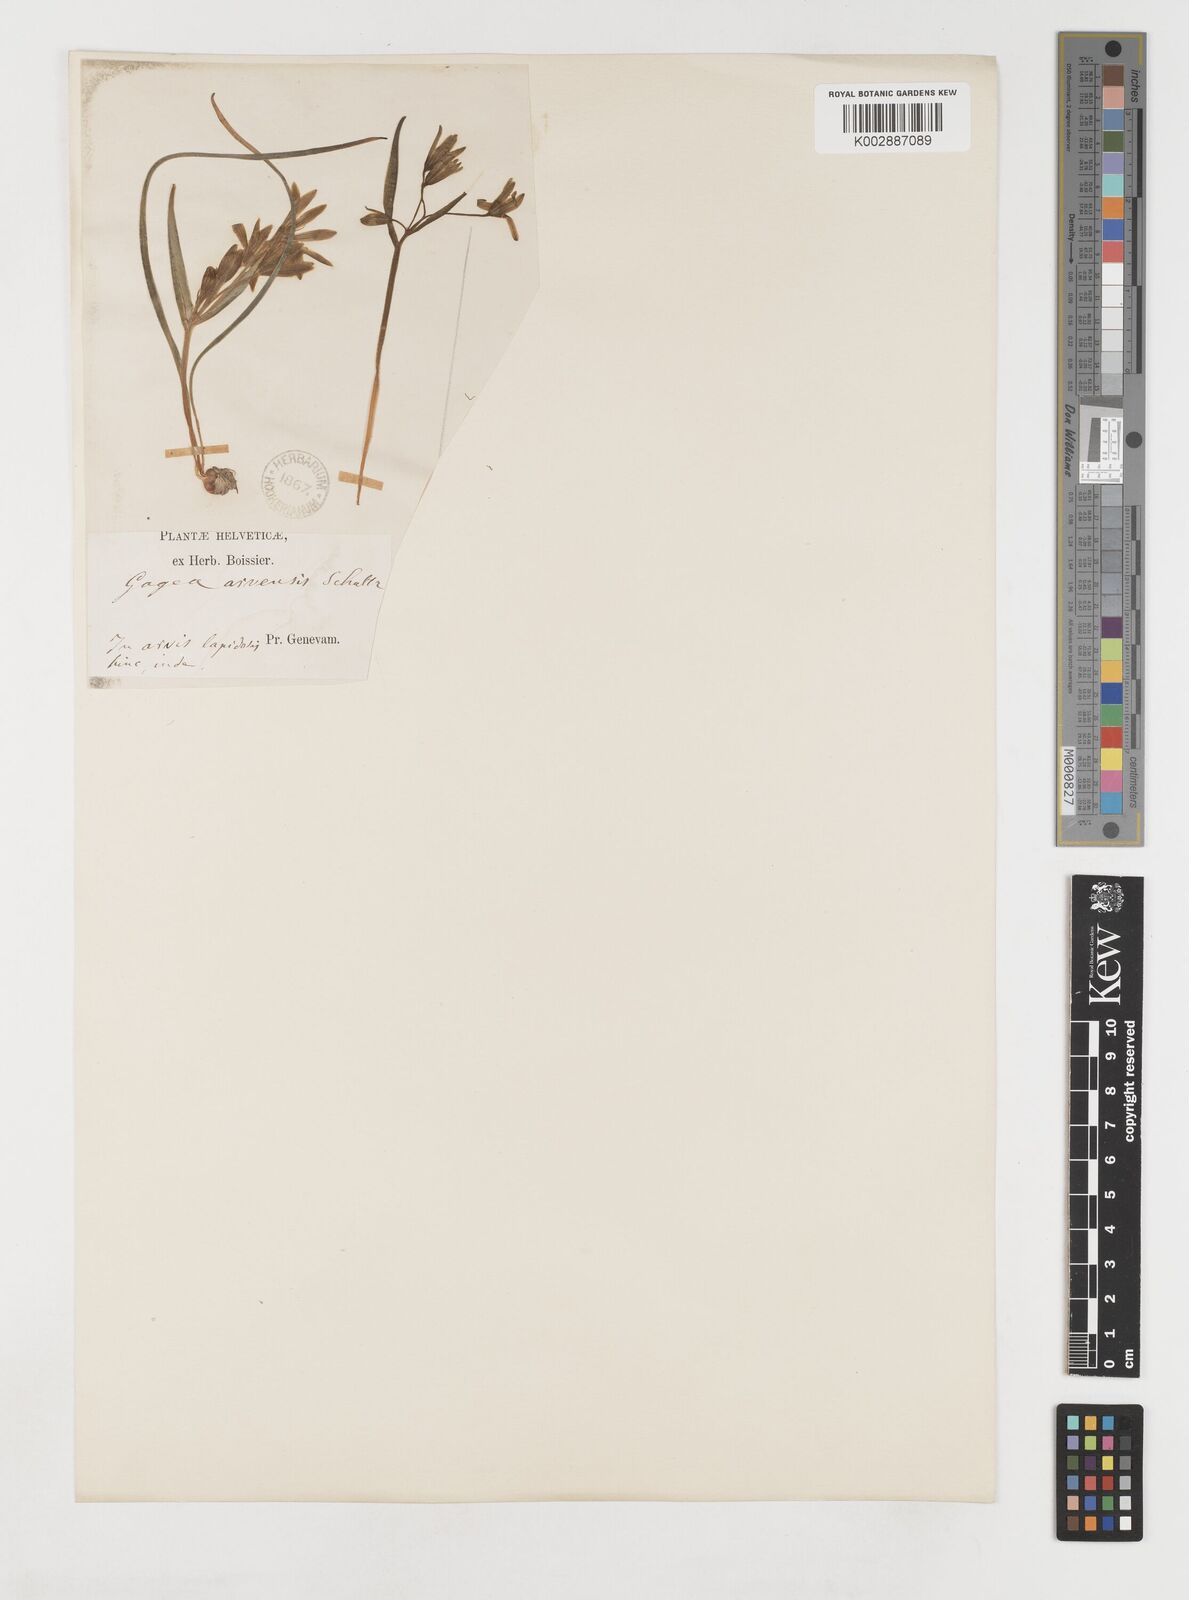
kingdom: Plantae
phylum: Tracheophyta
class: Liliopsida
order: Liliales
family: Liliaceae
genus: Gagea
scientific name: Gagea minima
